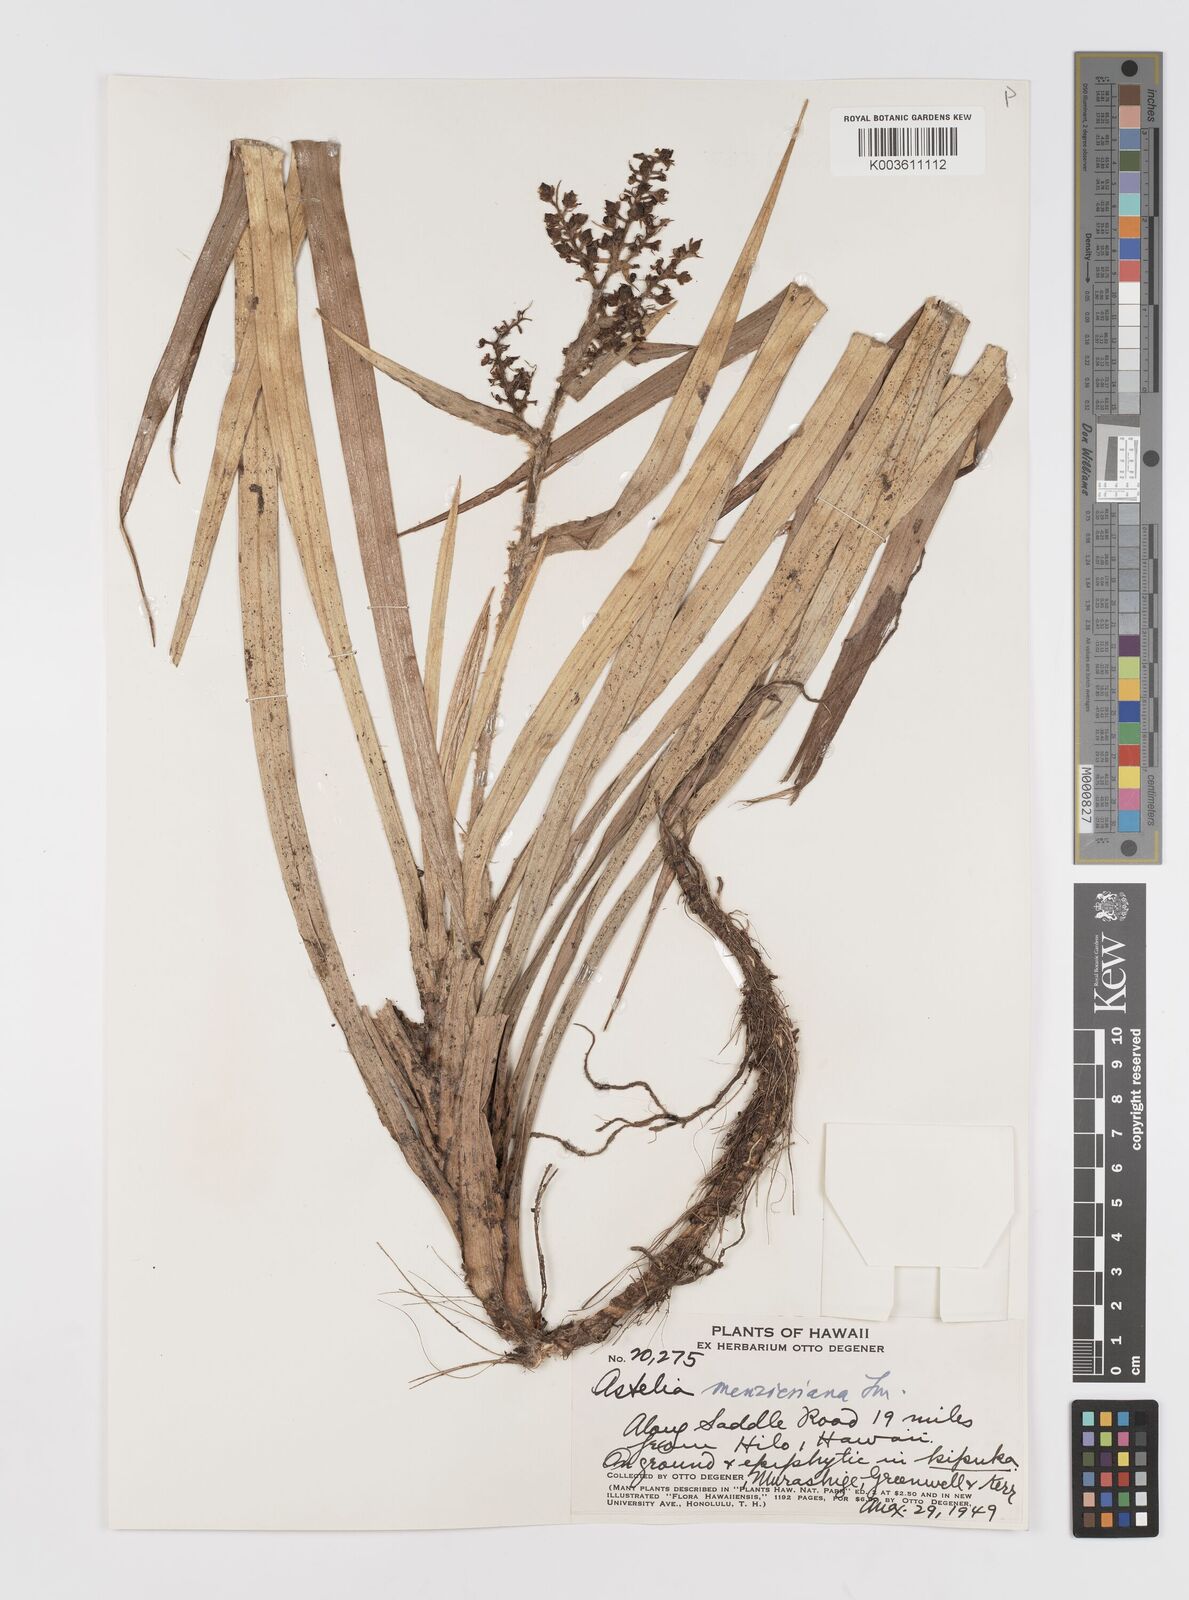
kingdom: Plantae
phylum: Tracheophyta
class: Liliopsida
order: Asparagales
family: Asteliaceae
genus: Astelia
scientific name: Astelia menziesiana
